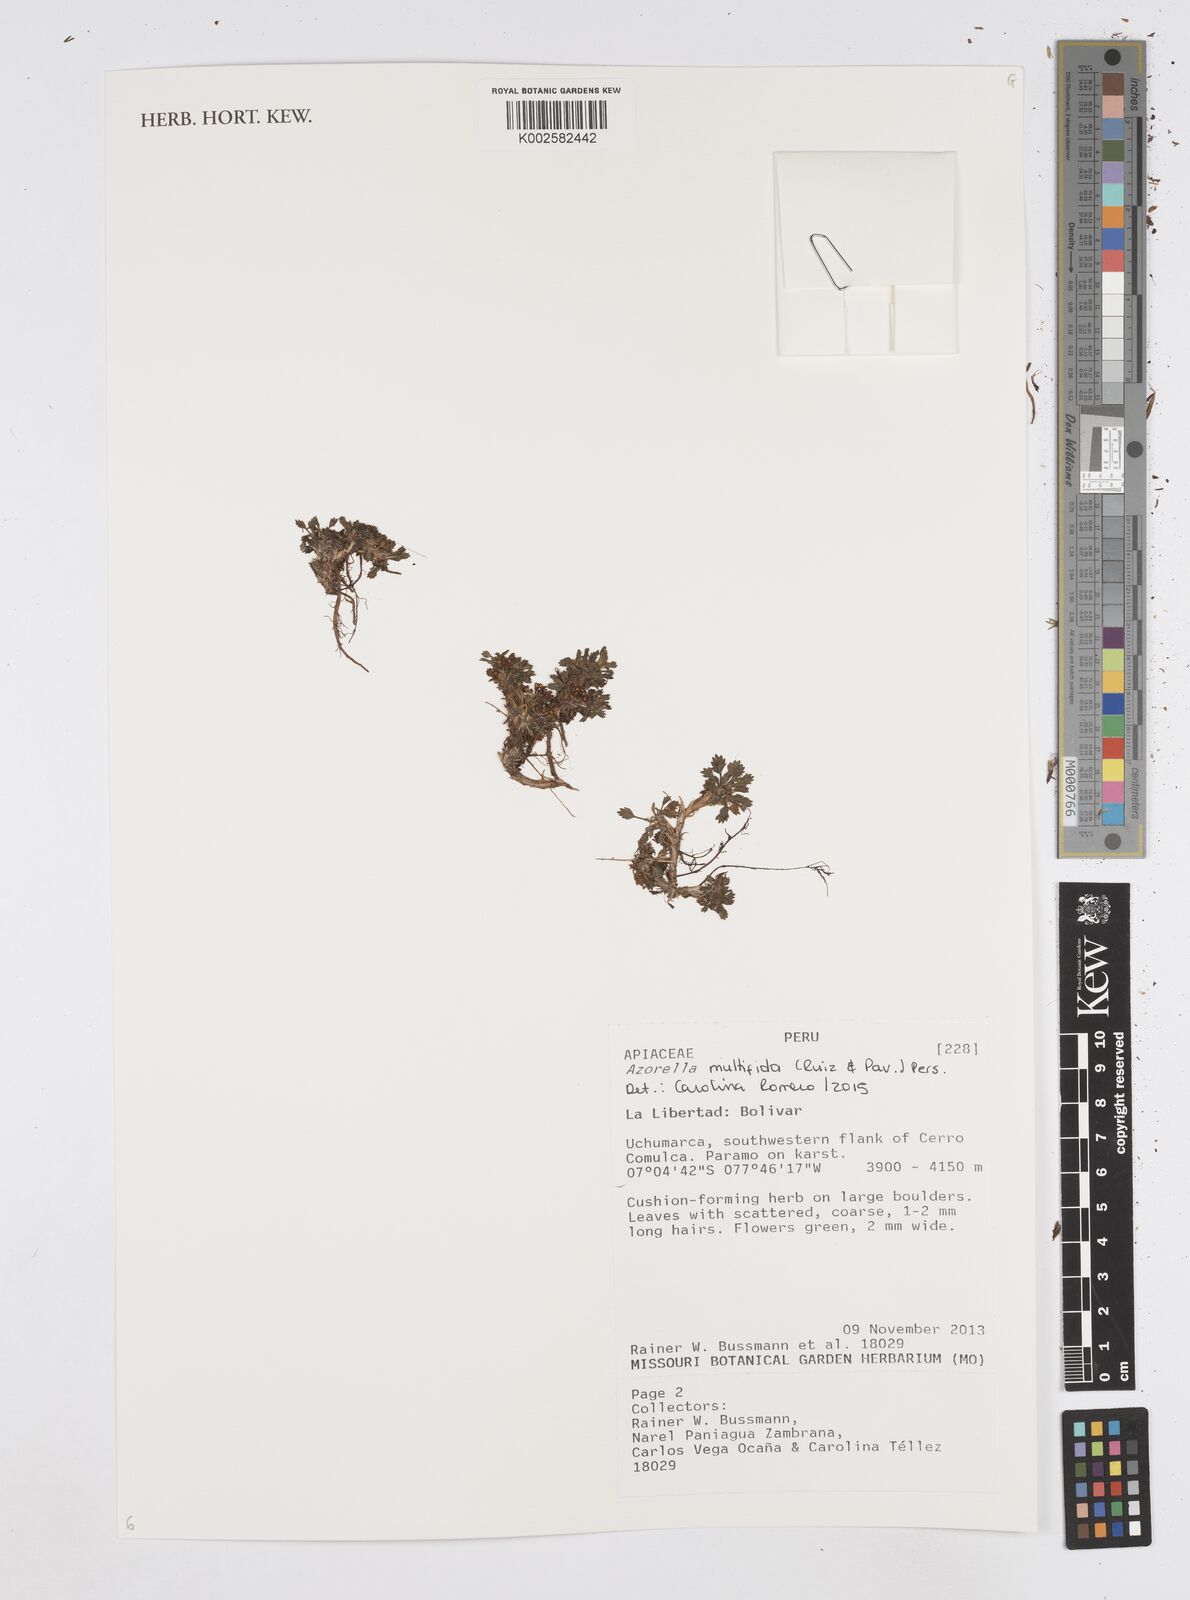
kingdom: Plantae
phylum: Tracheophyta
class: Magnoliopsida
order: Apiales
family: Apiaceae
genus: Azorella
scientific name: Azorella multifida
